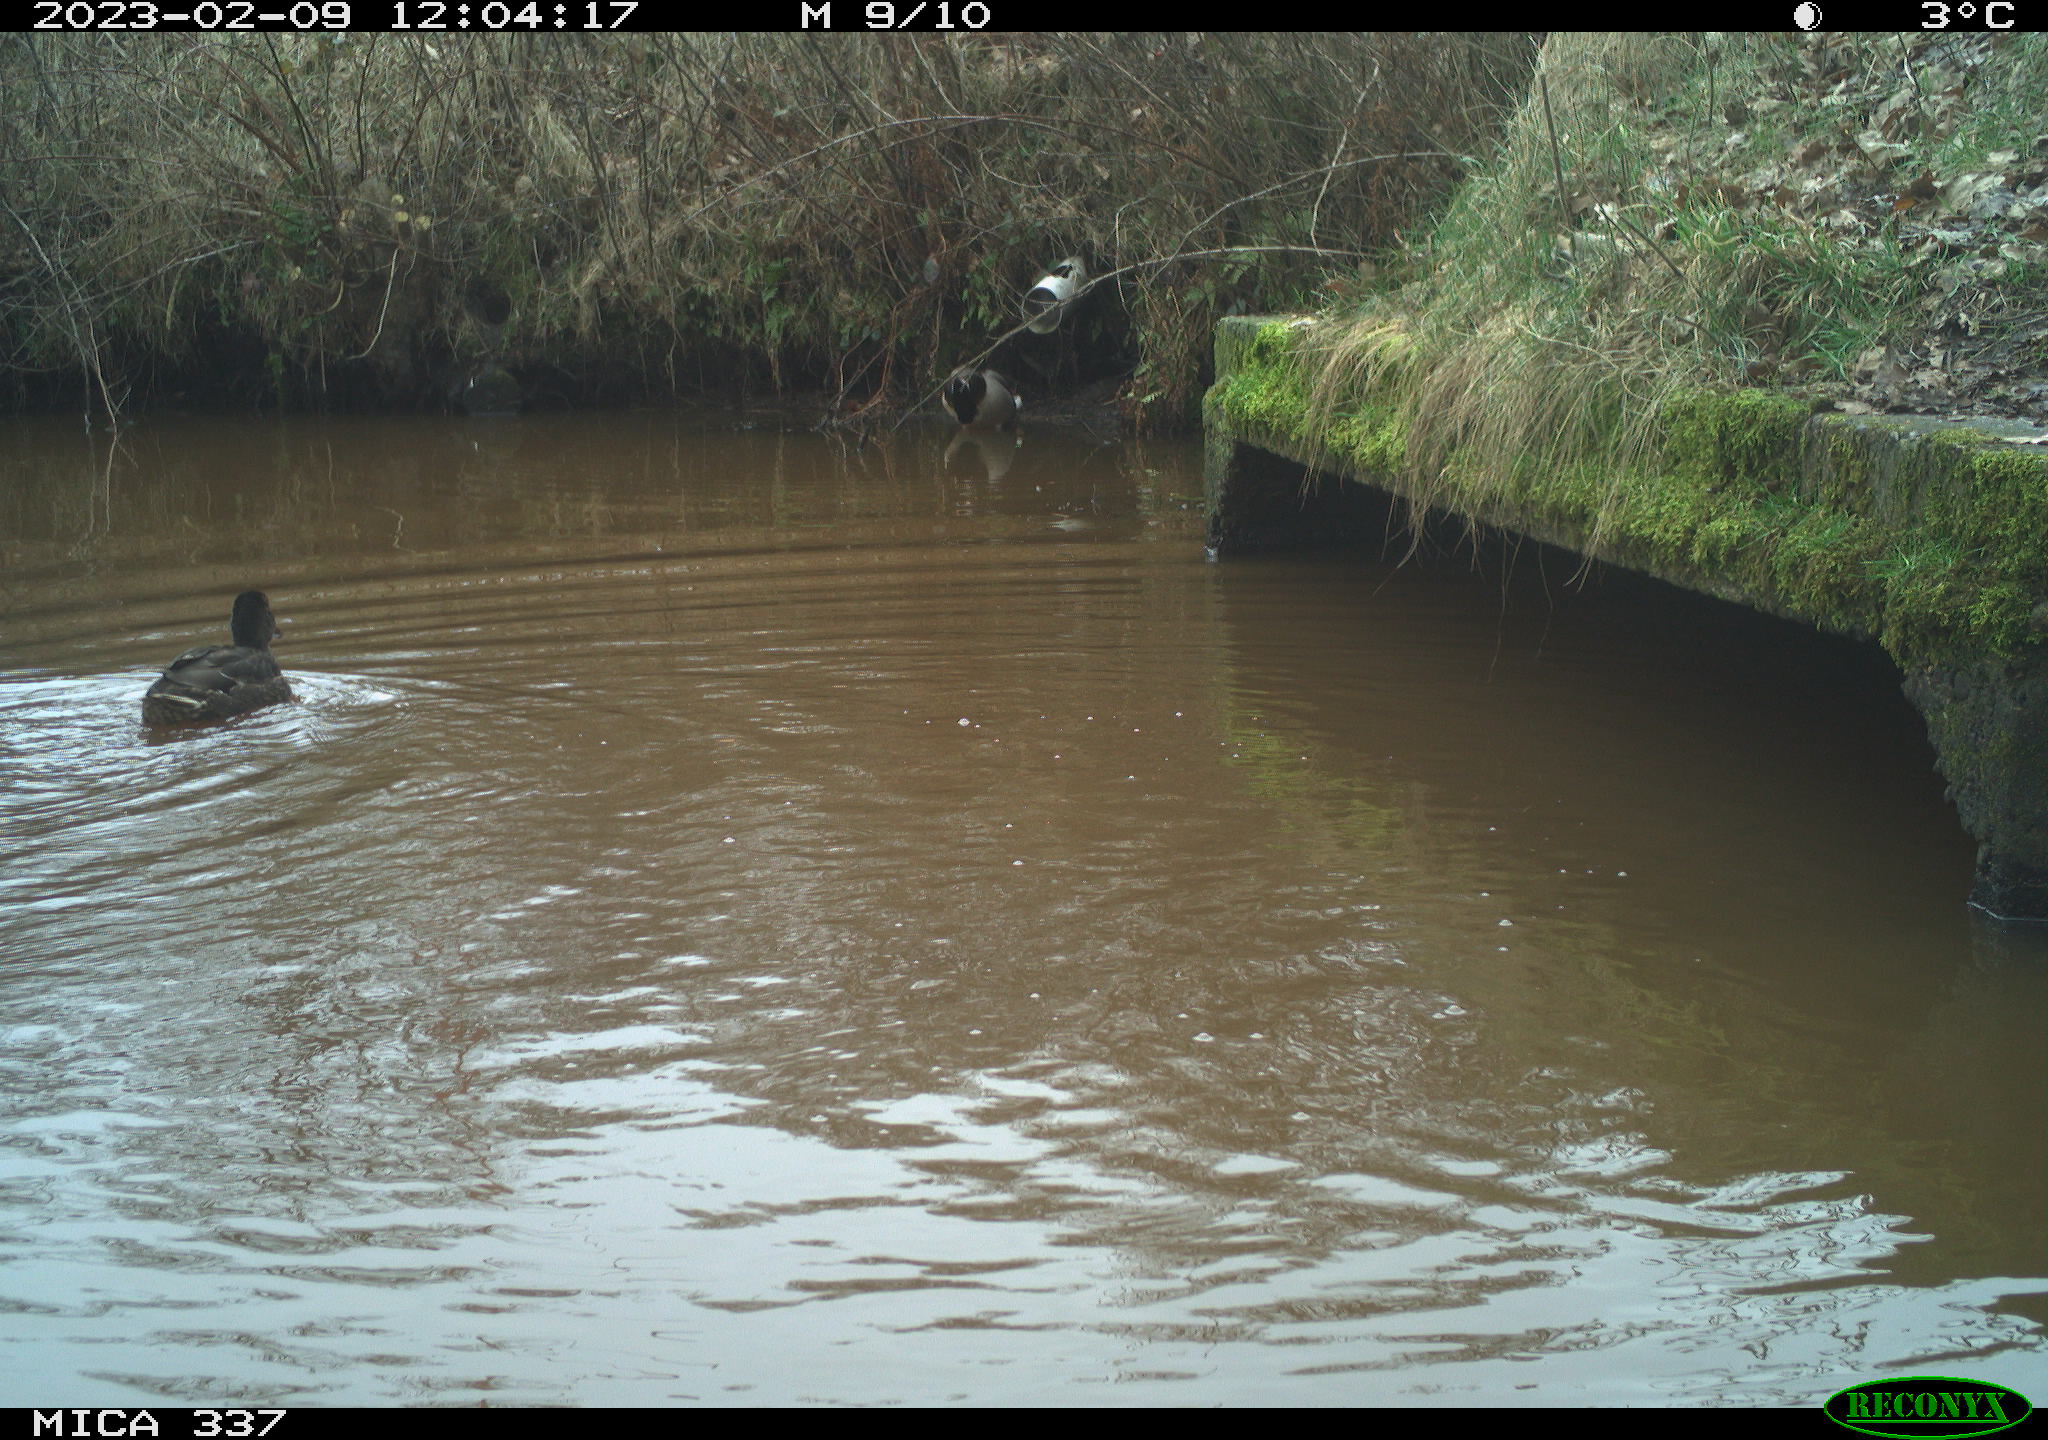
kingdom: Animalia
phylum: Chordata
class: Aves
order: Anseriformes
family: Anatidae
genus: Anas
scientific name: Anas
